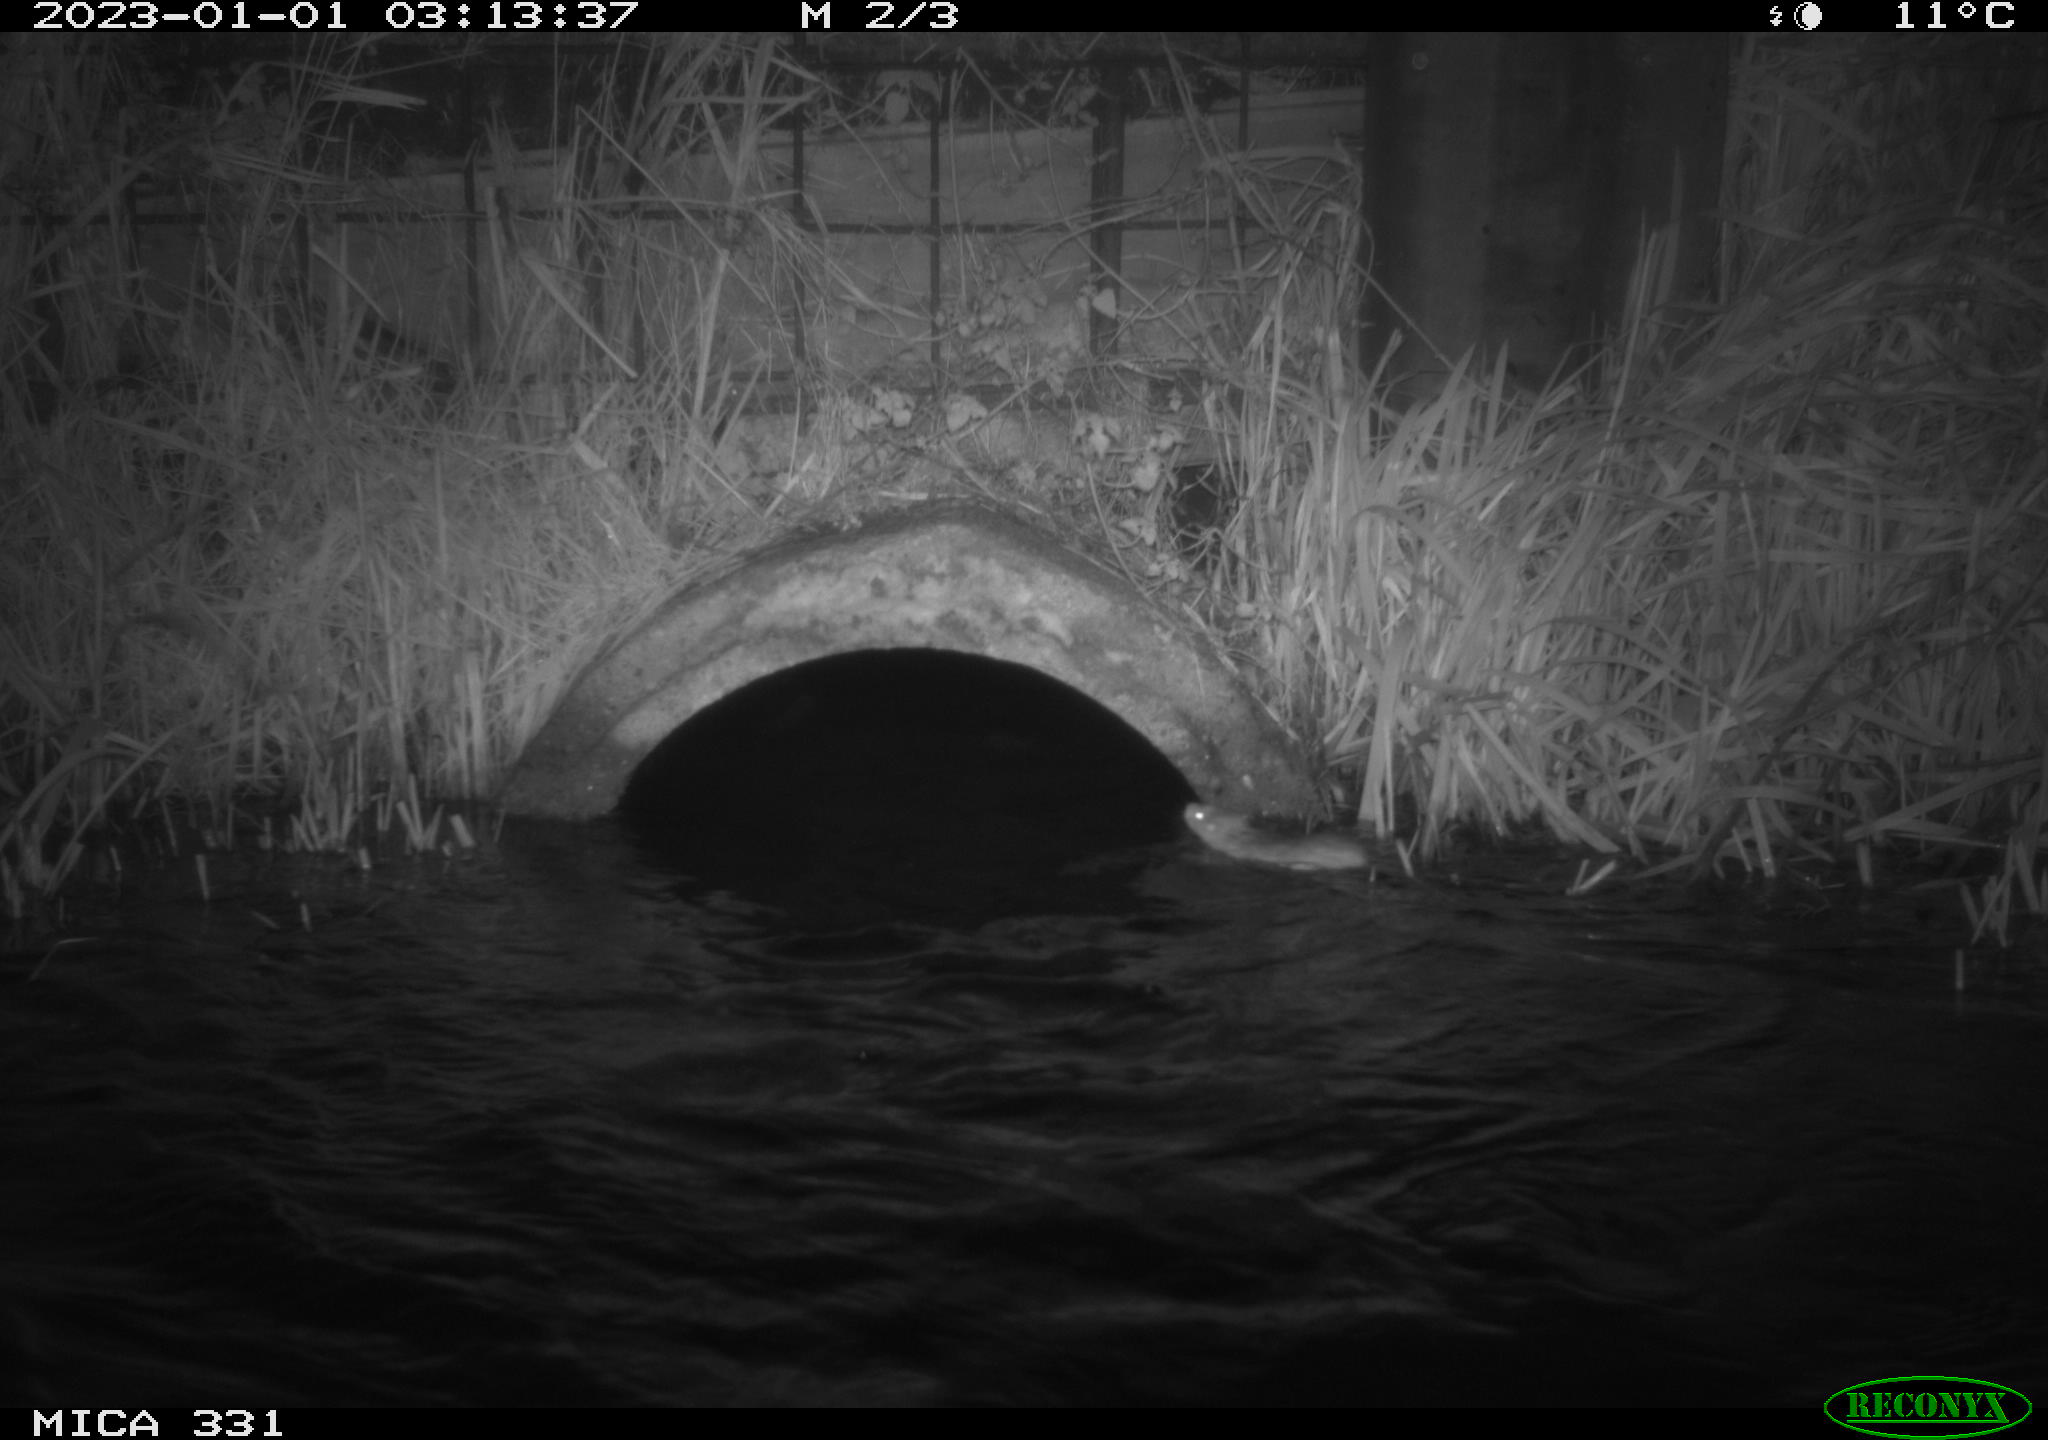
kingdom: Animalia
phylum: Chordata
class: Mammalia
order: Rodentia
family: Muridae
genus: Rattus
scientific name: Rattus norvegicus
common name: Brown rat
